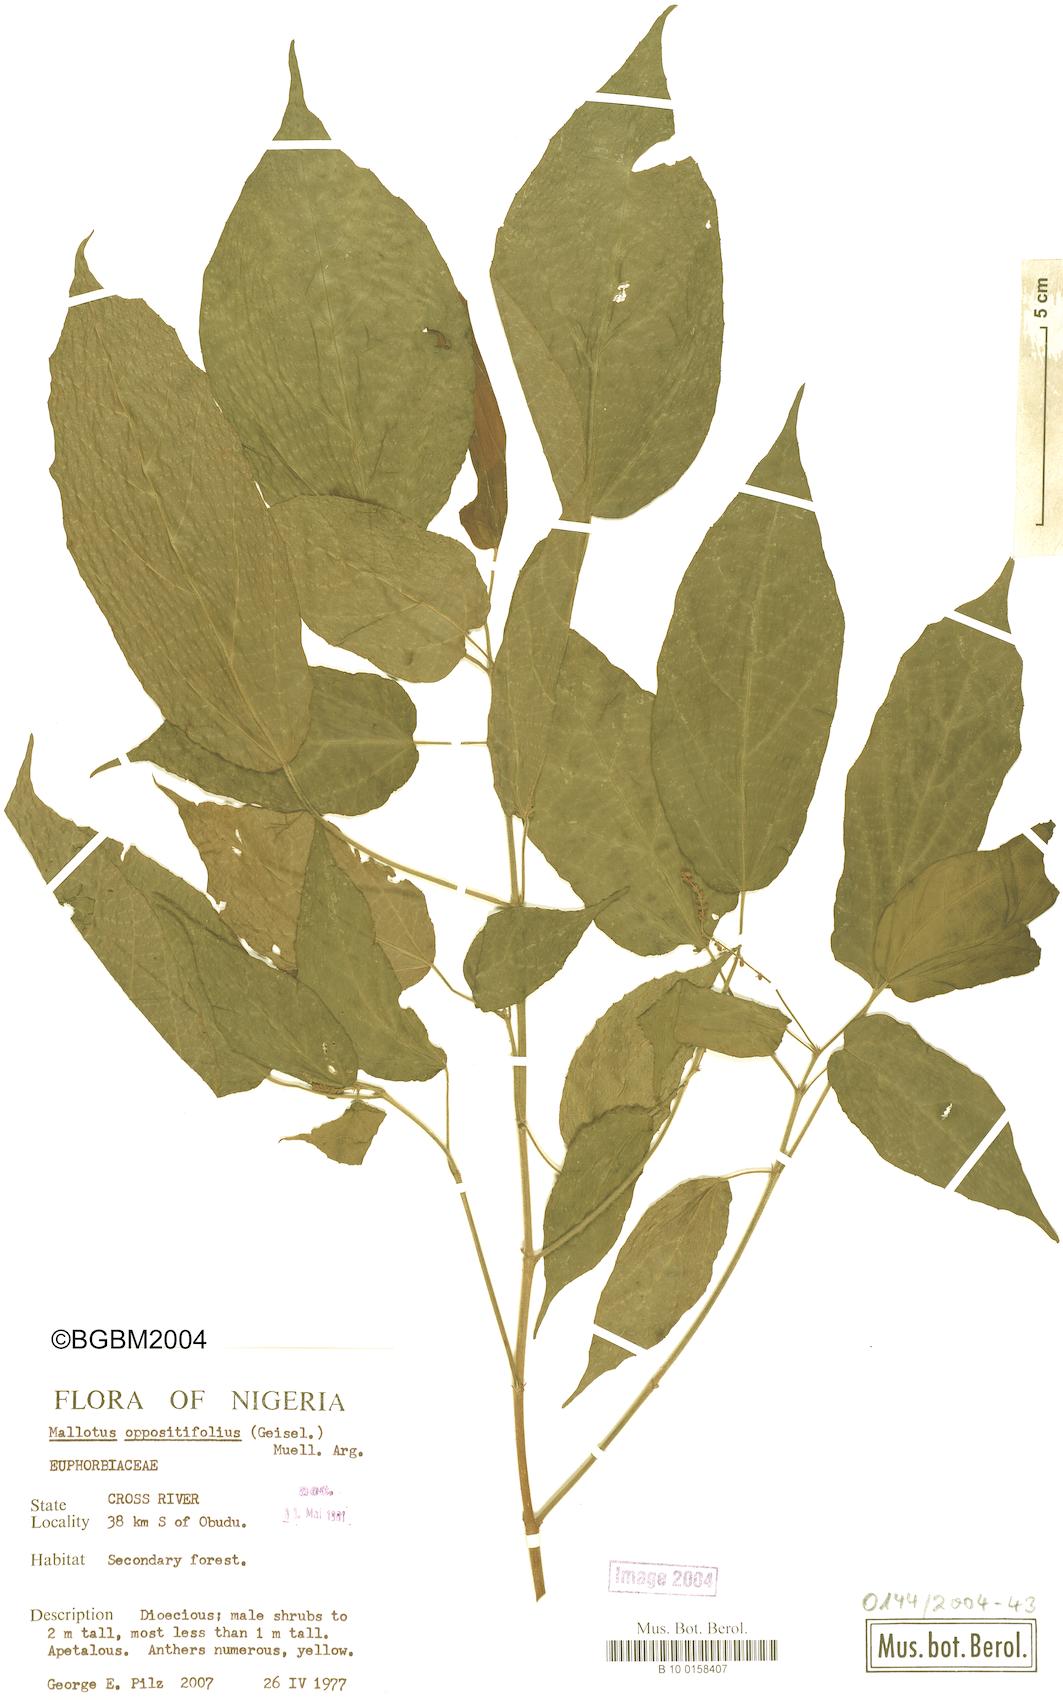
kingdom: Plantae
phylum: Tracheophyta
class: Magnoliopsida
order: Malpighiales
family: Euphorbiaceae
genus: Mallotus
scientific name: Mallotus oppositifolius
